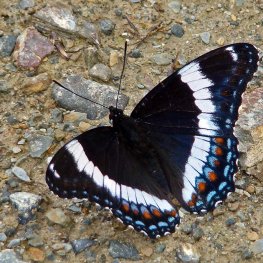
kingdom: Animalia
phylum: Arthropoda
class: Insecta
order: Lepidoptera
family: Nymphalidae
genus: Limenitis
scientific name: Limenitis arthemis
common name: Red-spotted Admiral
